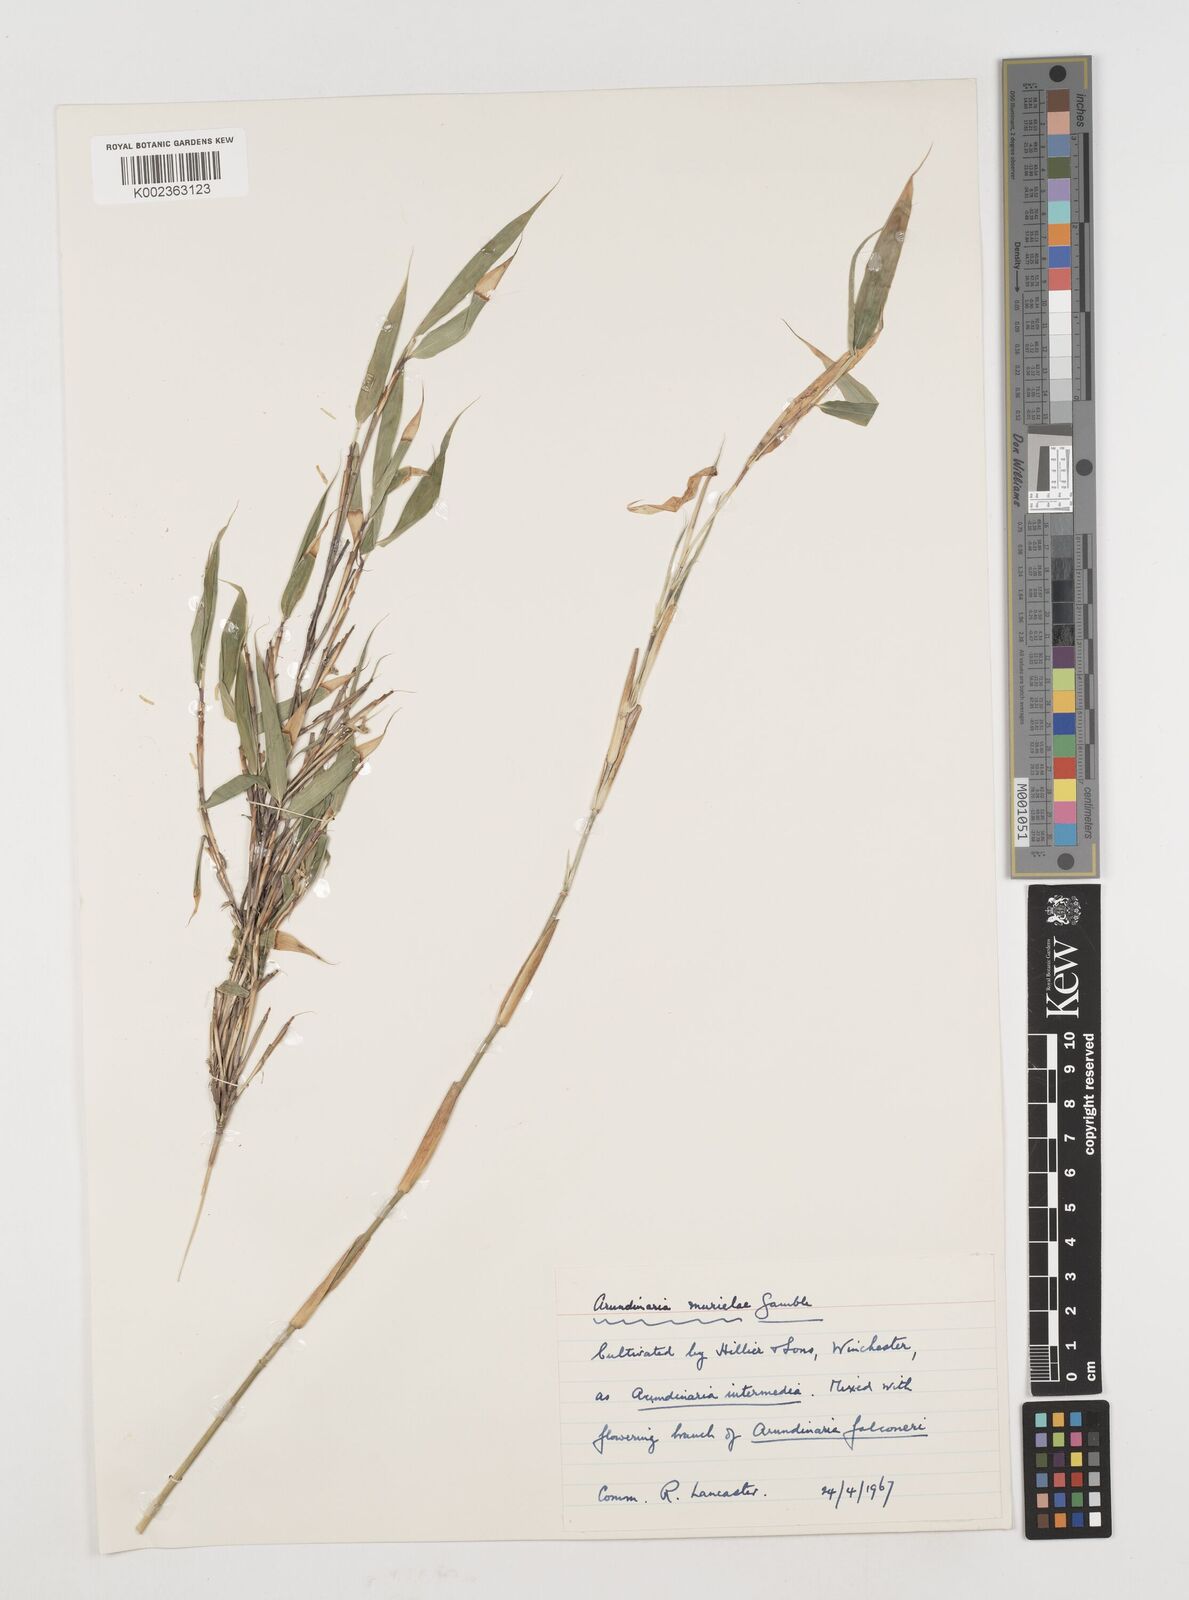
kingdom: Plantae
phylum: Tracheophyta
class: Liliopsida
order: Poales
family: Poaceae
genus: Fargesia
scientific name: Fargesia murielae
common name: Umbrella bamboo
